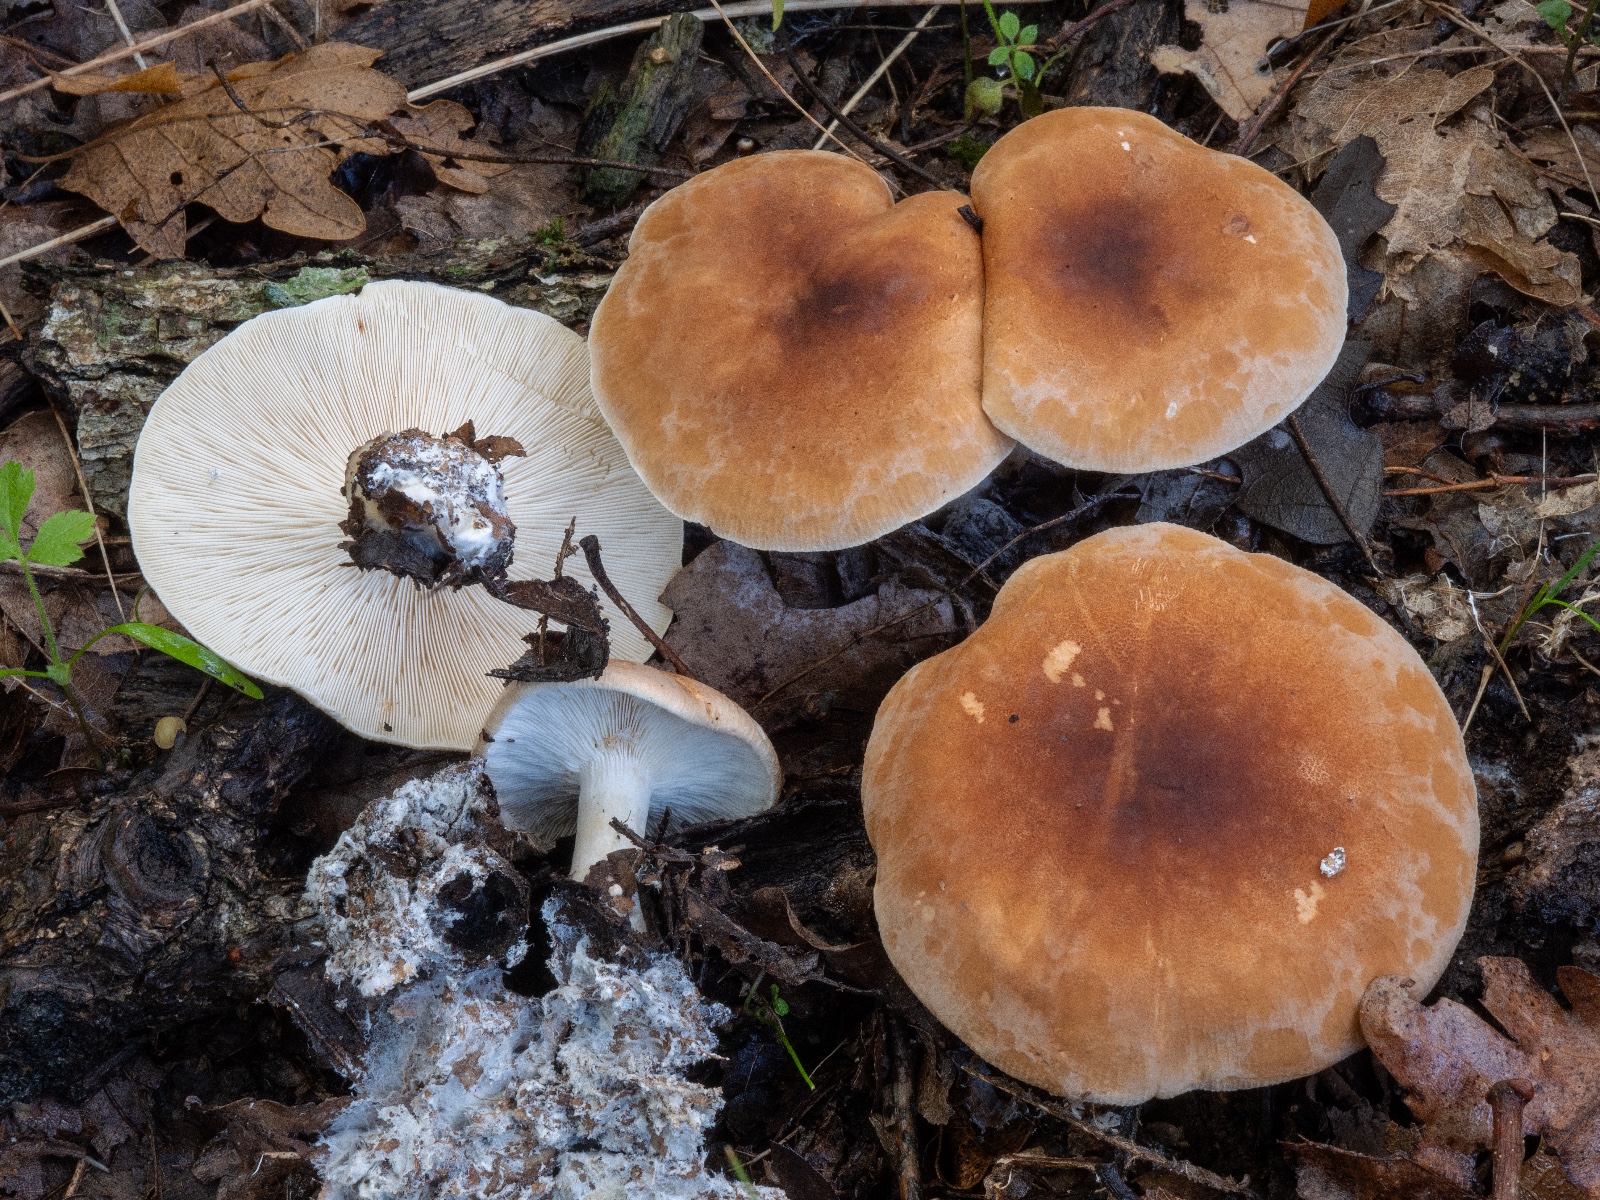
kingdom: Fungi
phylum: Basidiomycota
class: Agaricomycetes
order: Agaricales
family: Tricholomataceae
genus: Leucopaxillus
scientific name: Leucopaxillus gentianeus
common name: bitter tragtridderhat
